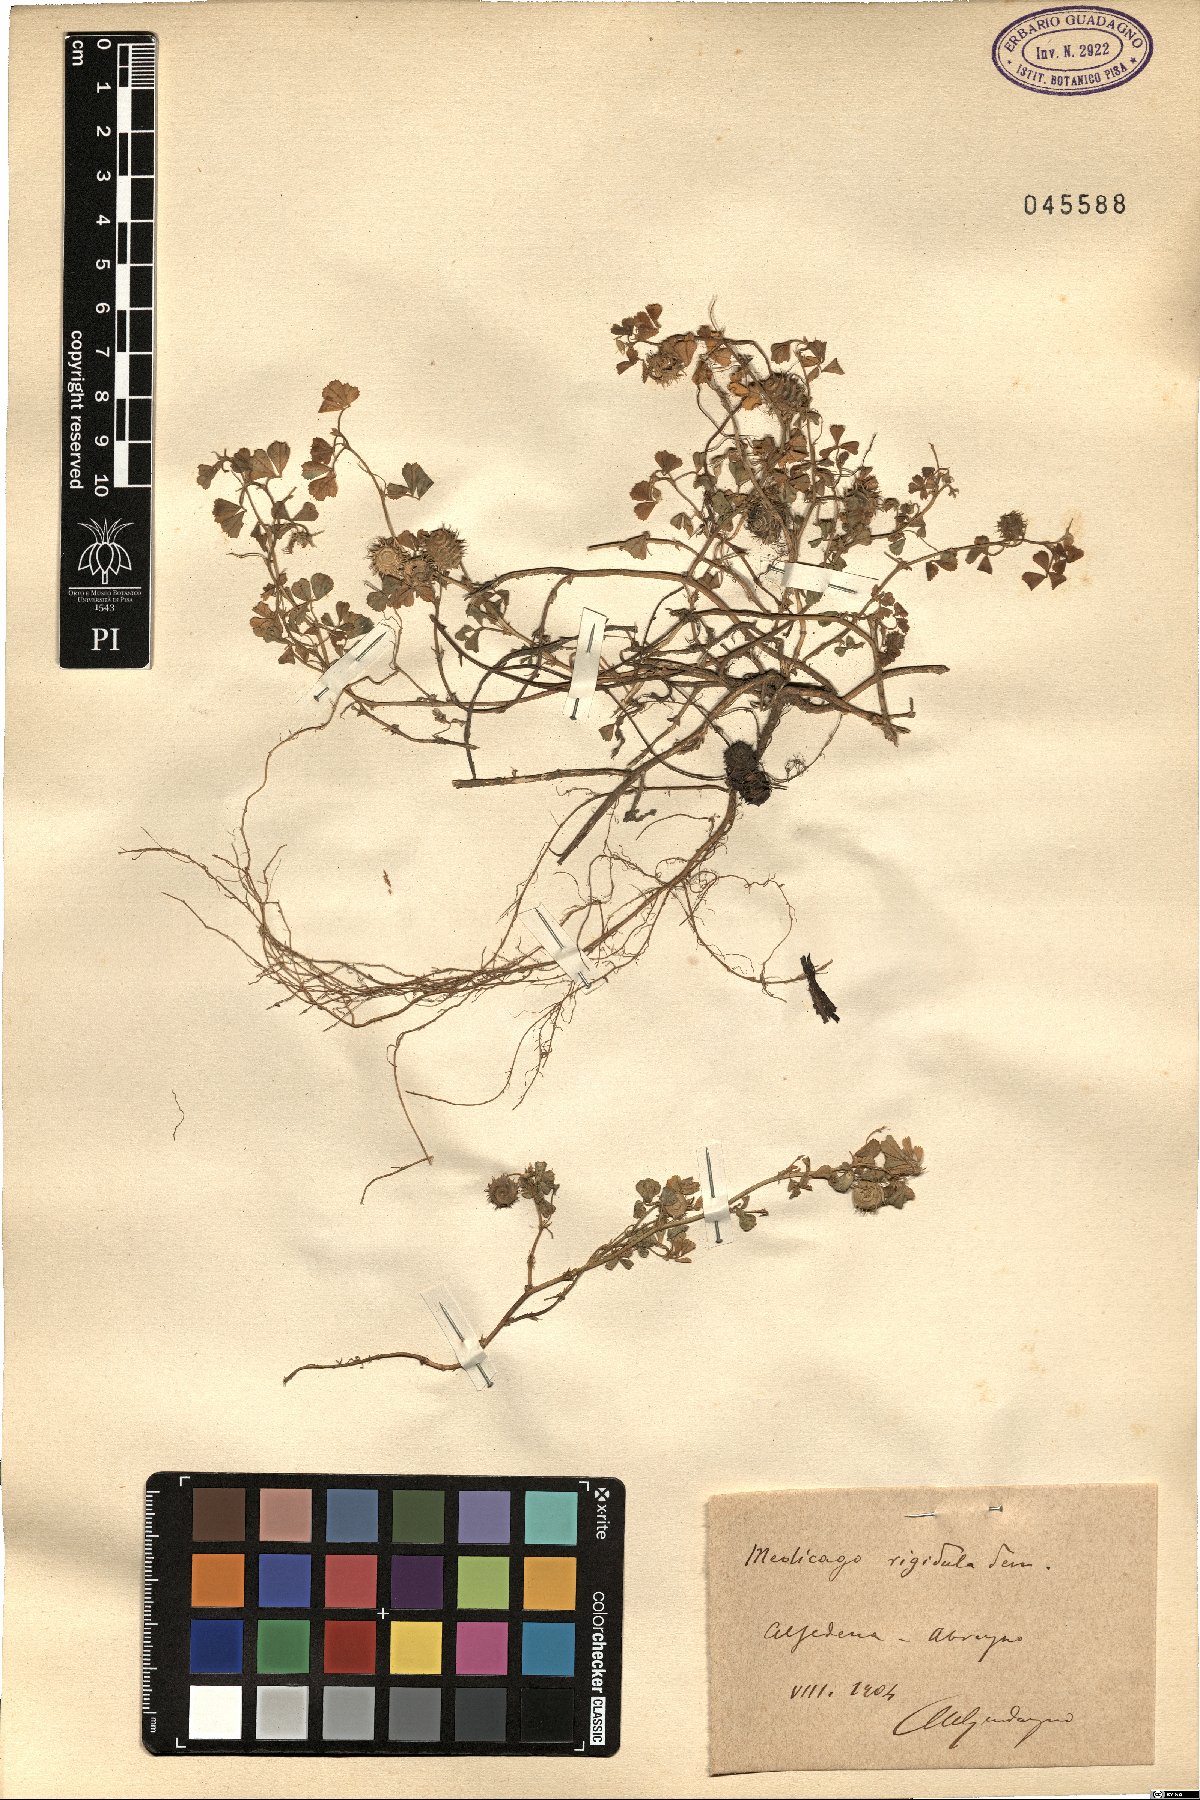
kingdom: Plantae
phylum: Tracheophyta
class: Magnoliopsida
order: Fabales
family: Fabaceae
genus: Medicago
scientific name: Medicago rigidula
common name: Tifton medic
